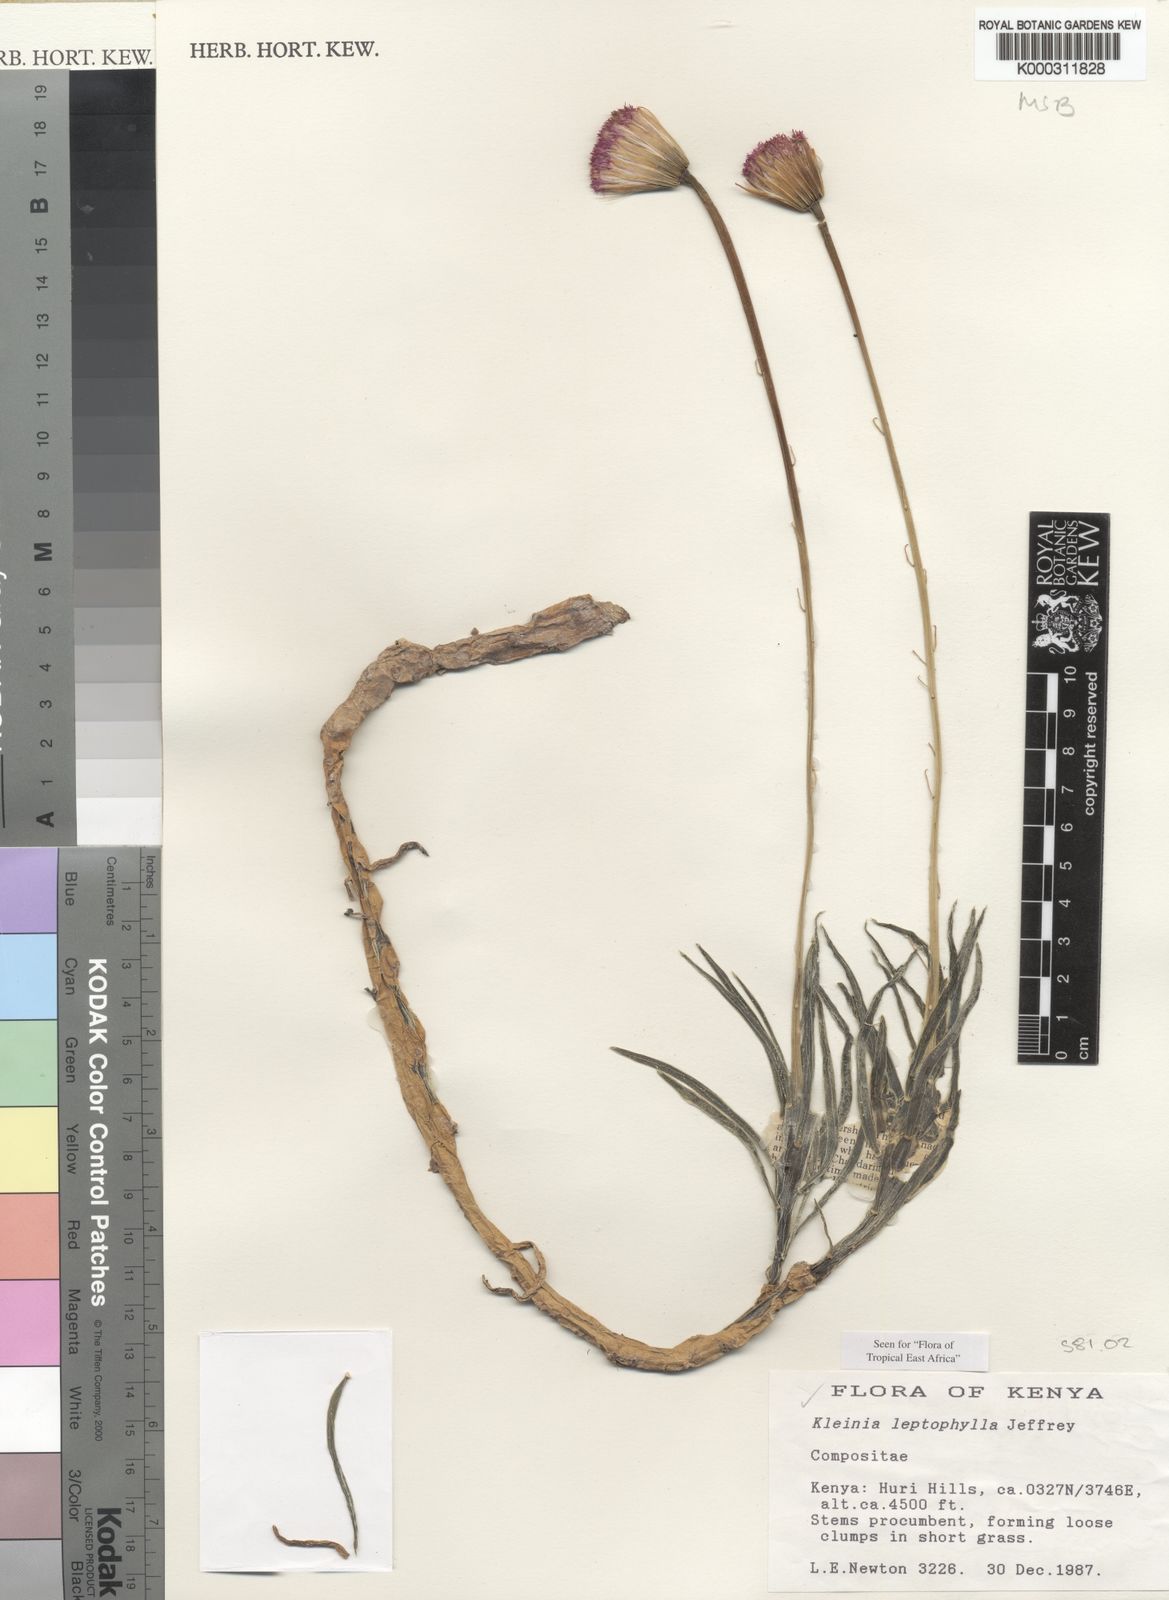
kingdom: Plantae
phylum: Tracheophyta
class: Magnoliopsida
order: Asterales
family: Asteraceae
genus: Kleinia
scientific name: Kleinia leptophylla
